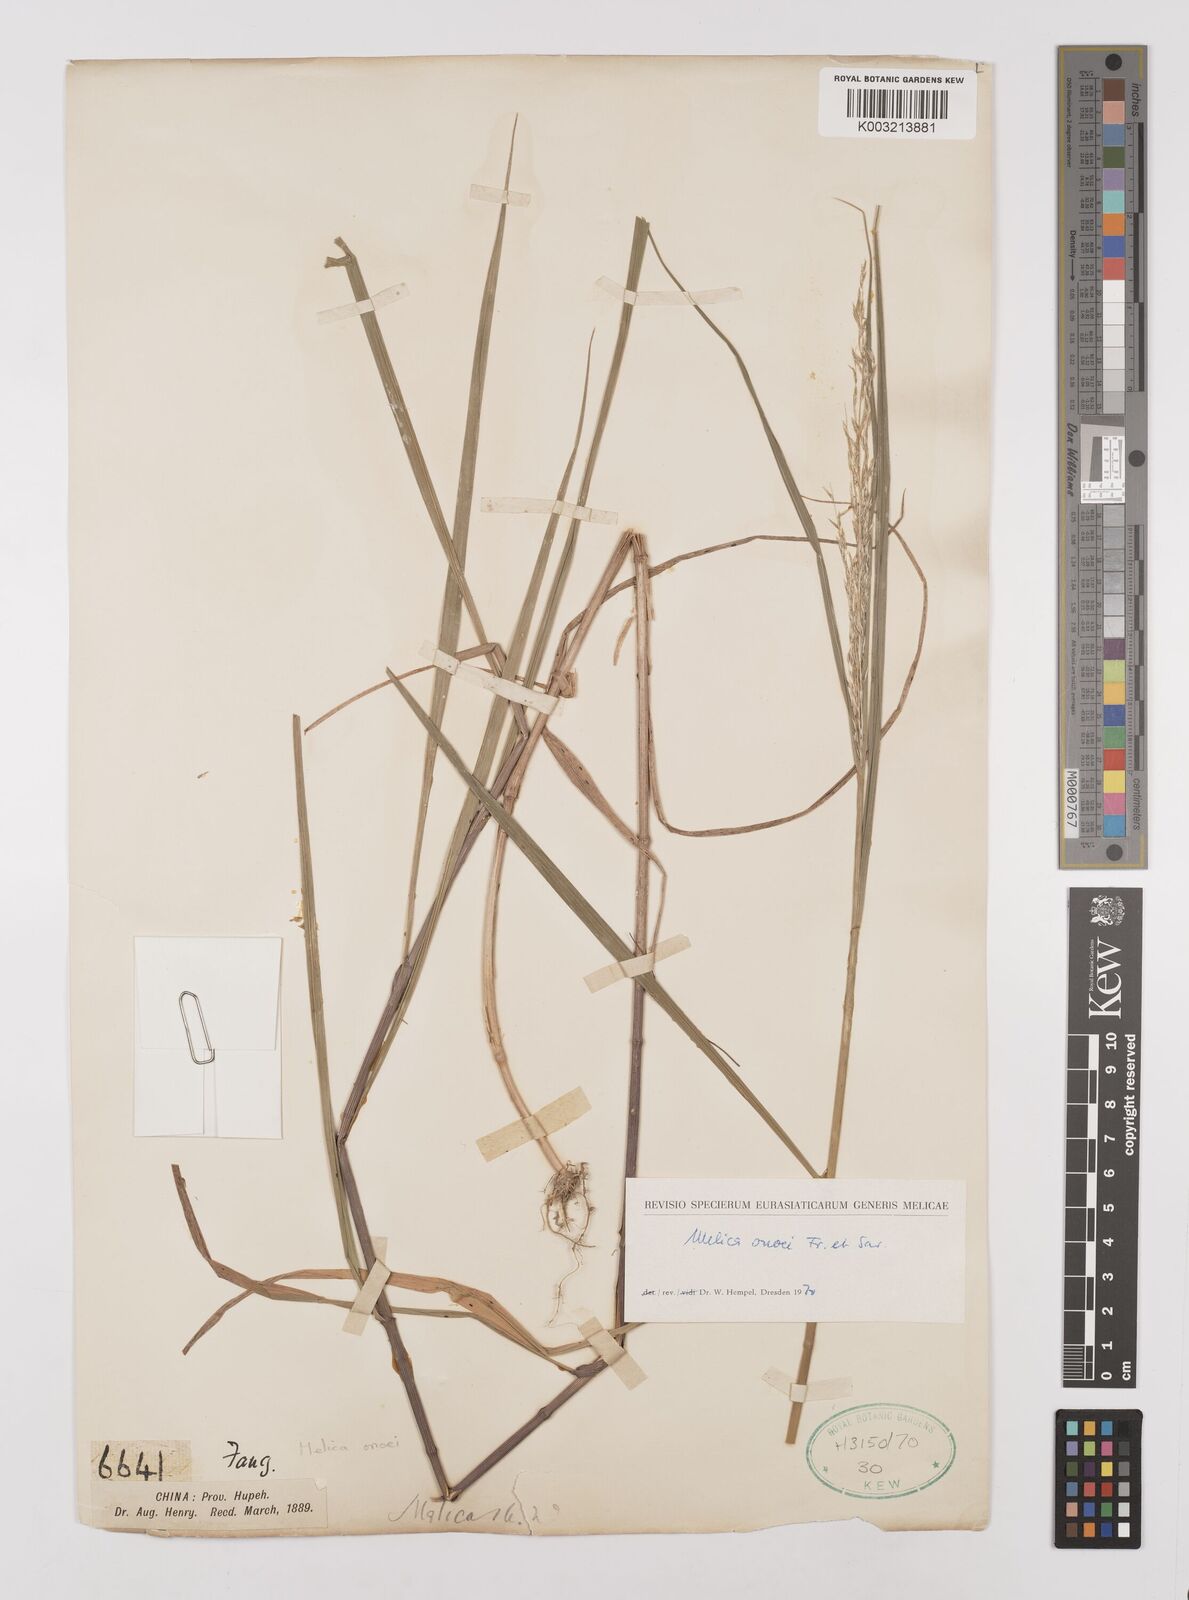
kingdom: Plantae
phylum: Tracheophyta
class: Liliopsida
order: Poales
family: Poaceae
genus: Melica
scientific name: Melica onoei
